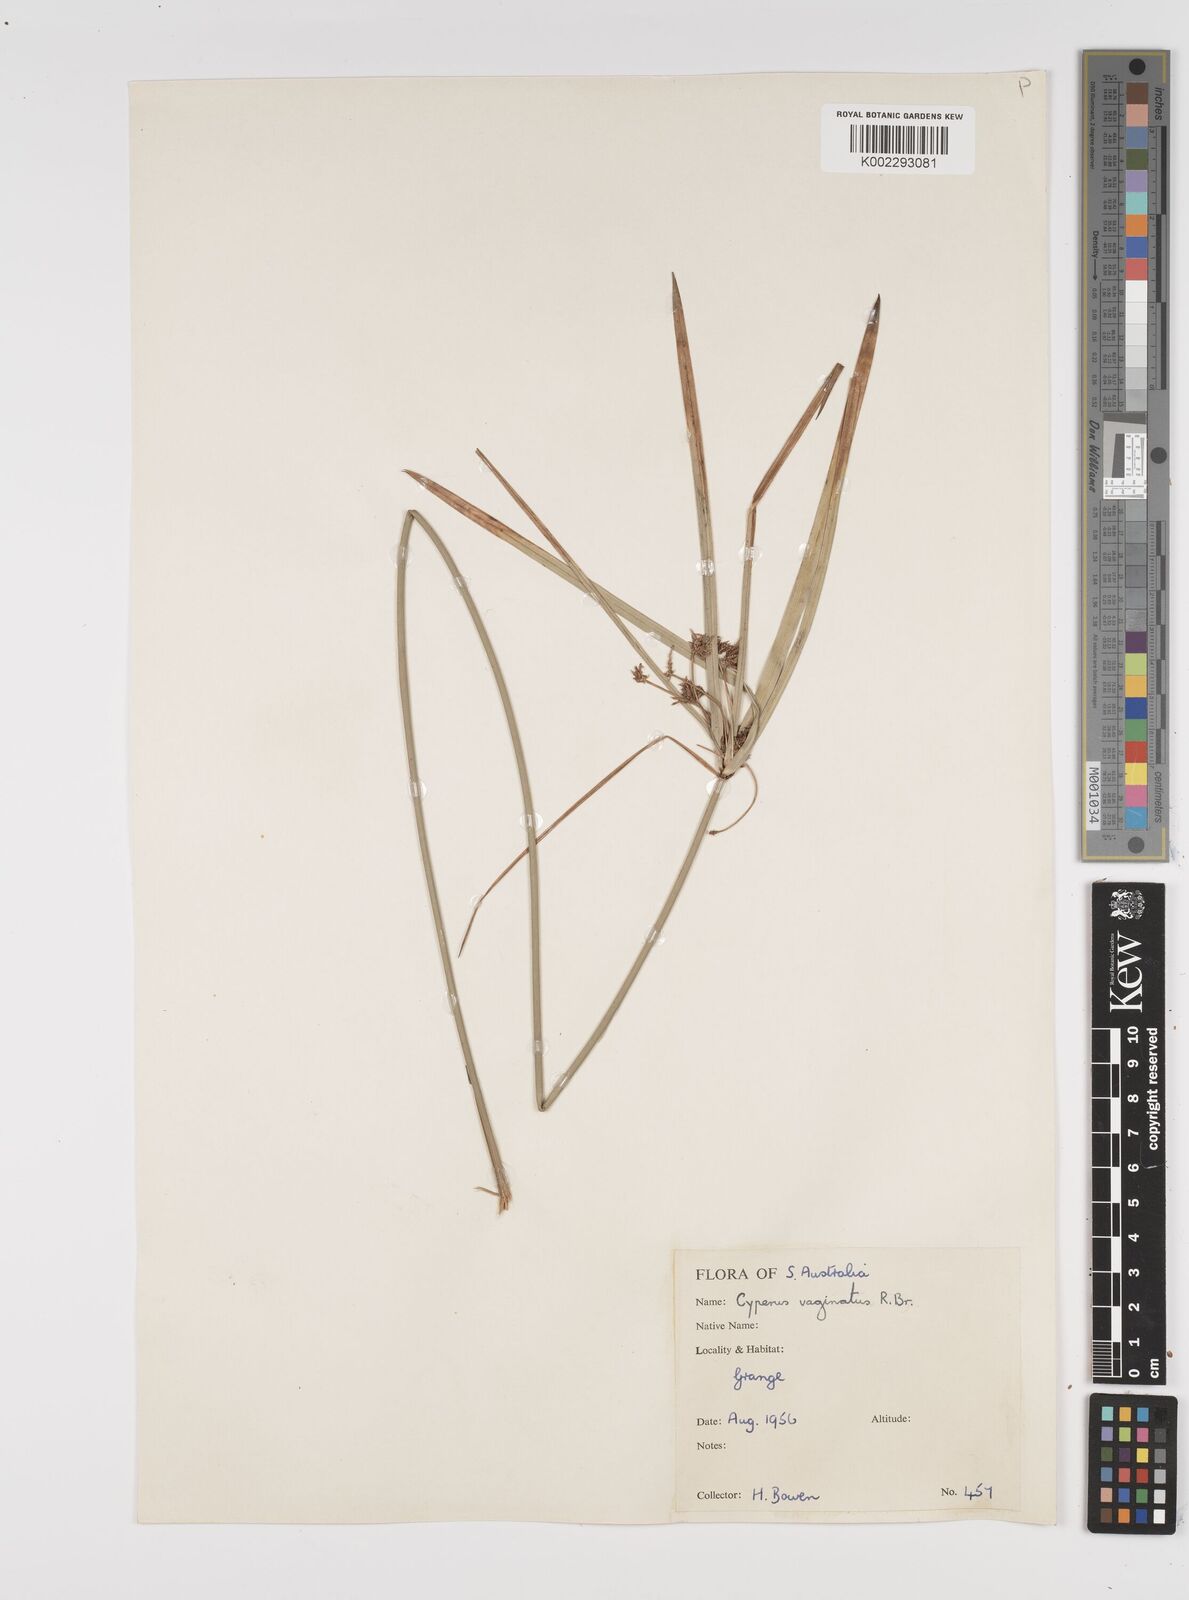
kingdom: Plantae
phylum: Tracheophyta
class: Liliopsida
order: Poales
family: Cyperaceae
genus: Cyperus
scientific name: Cyperus vaginatus
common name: Stiff-leaved flat-sedge
